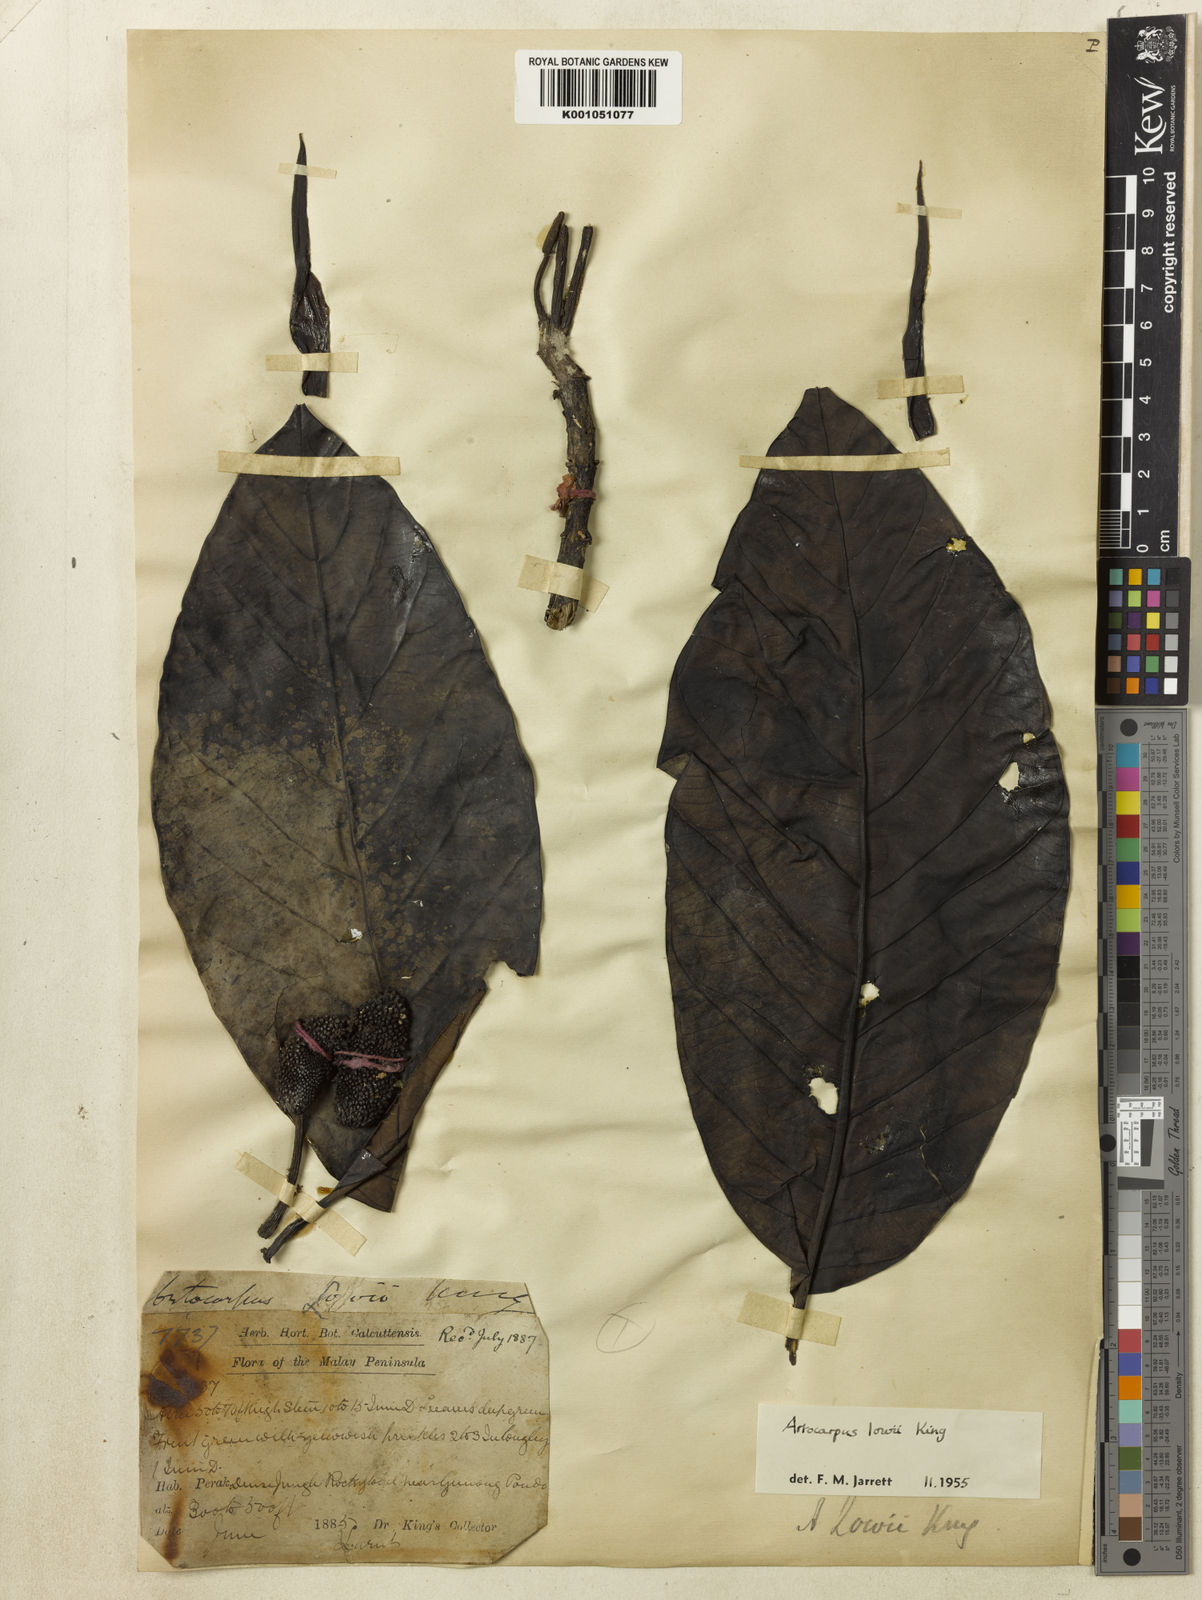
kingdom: Plantae
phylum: Tracheophyta
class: Magnoliopsida
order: Rosales
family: Moraceae
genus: Artocarpus
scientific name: Artocarpus lowii
